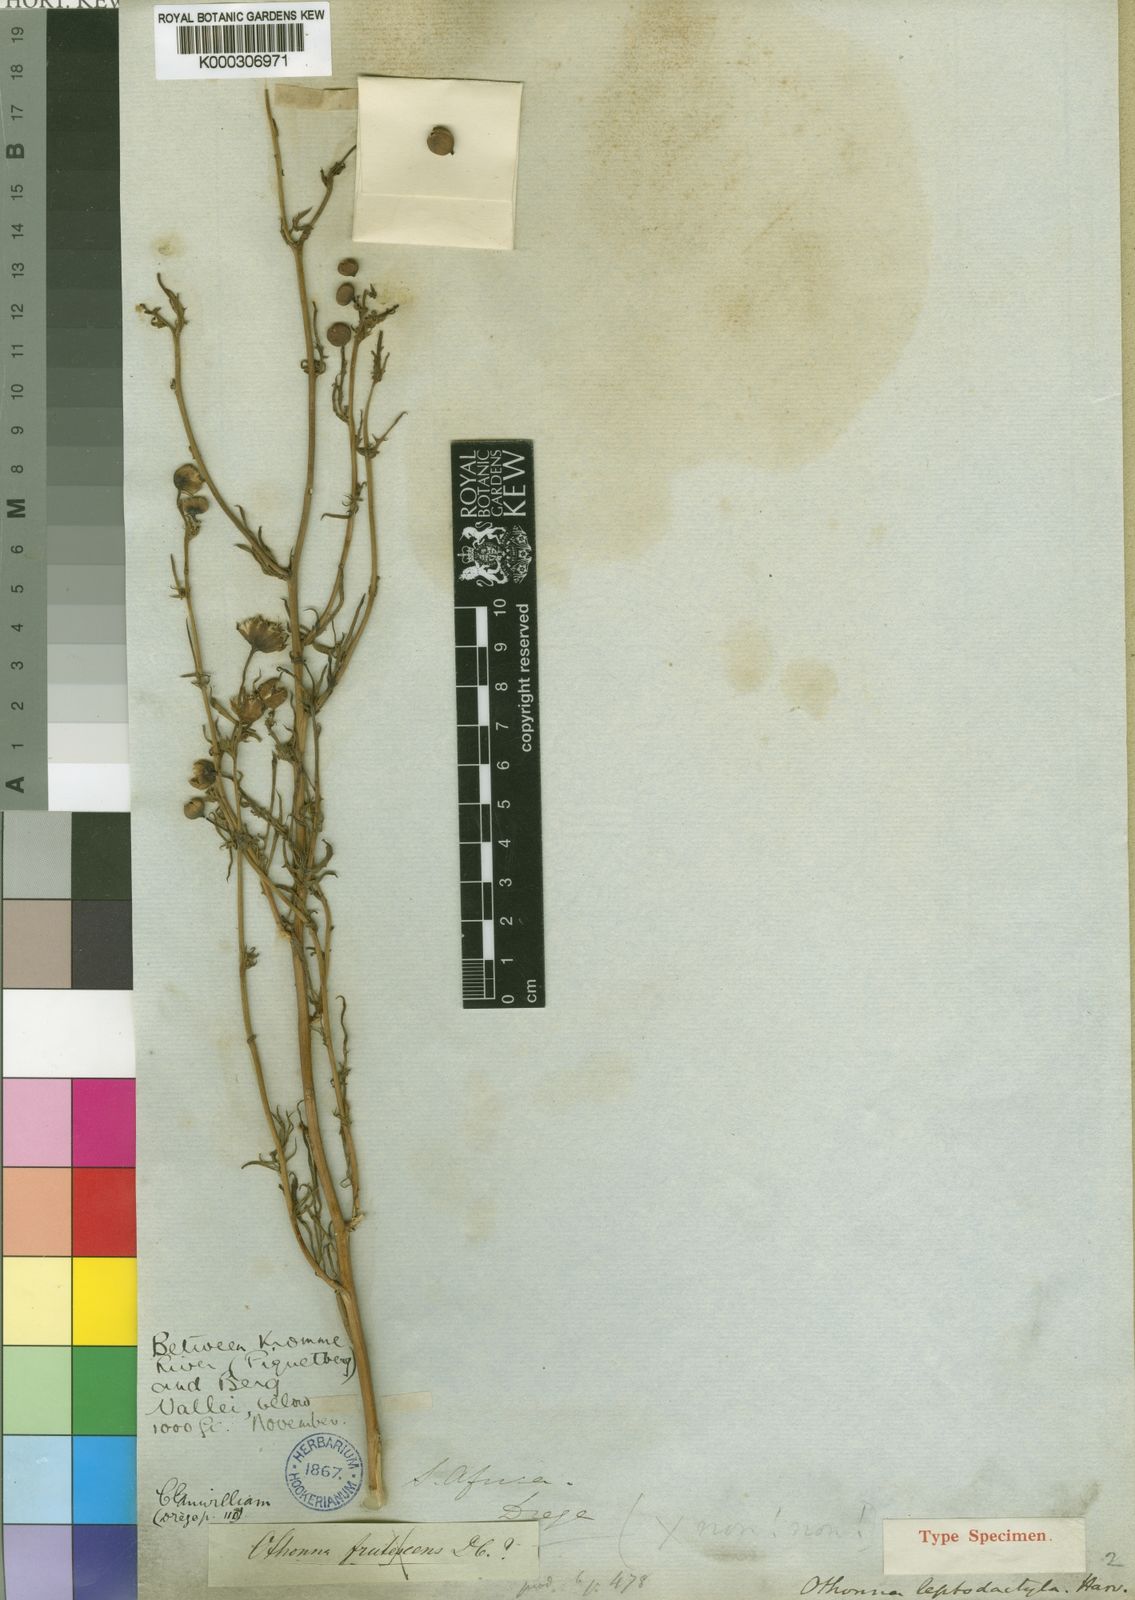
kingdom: Plantae
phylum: Tracheophyta
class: Magnoliopsida
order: Asterales
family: Asteraceae
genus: Othonna
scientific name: Othonna leptodactyla
